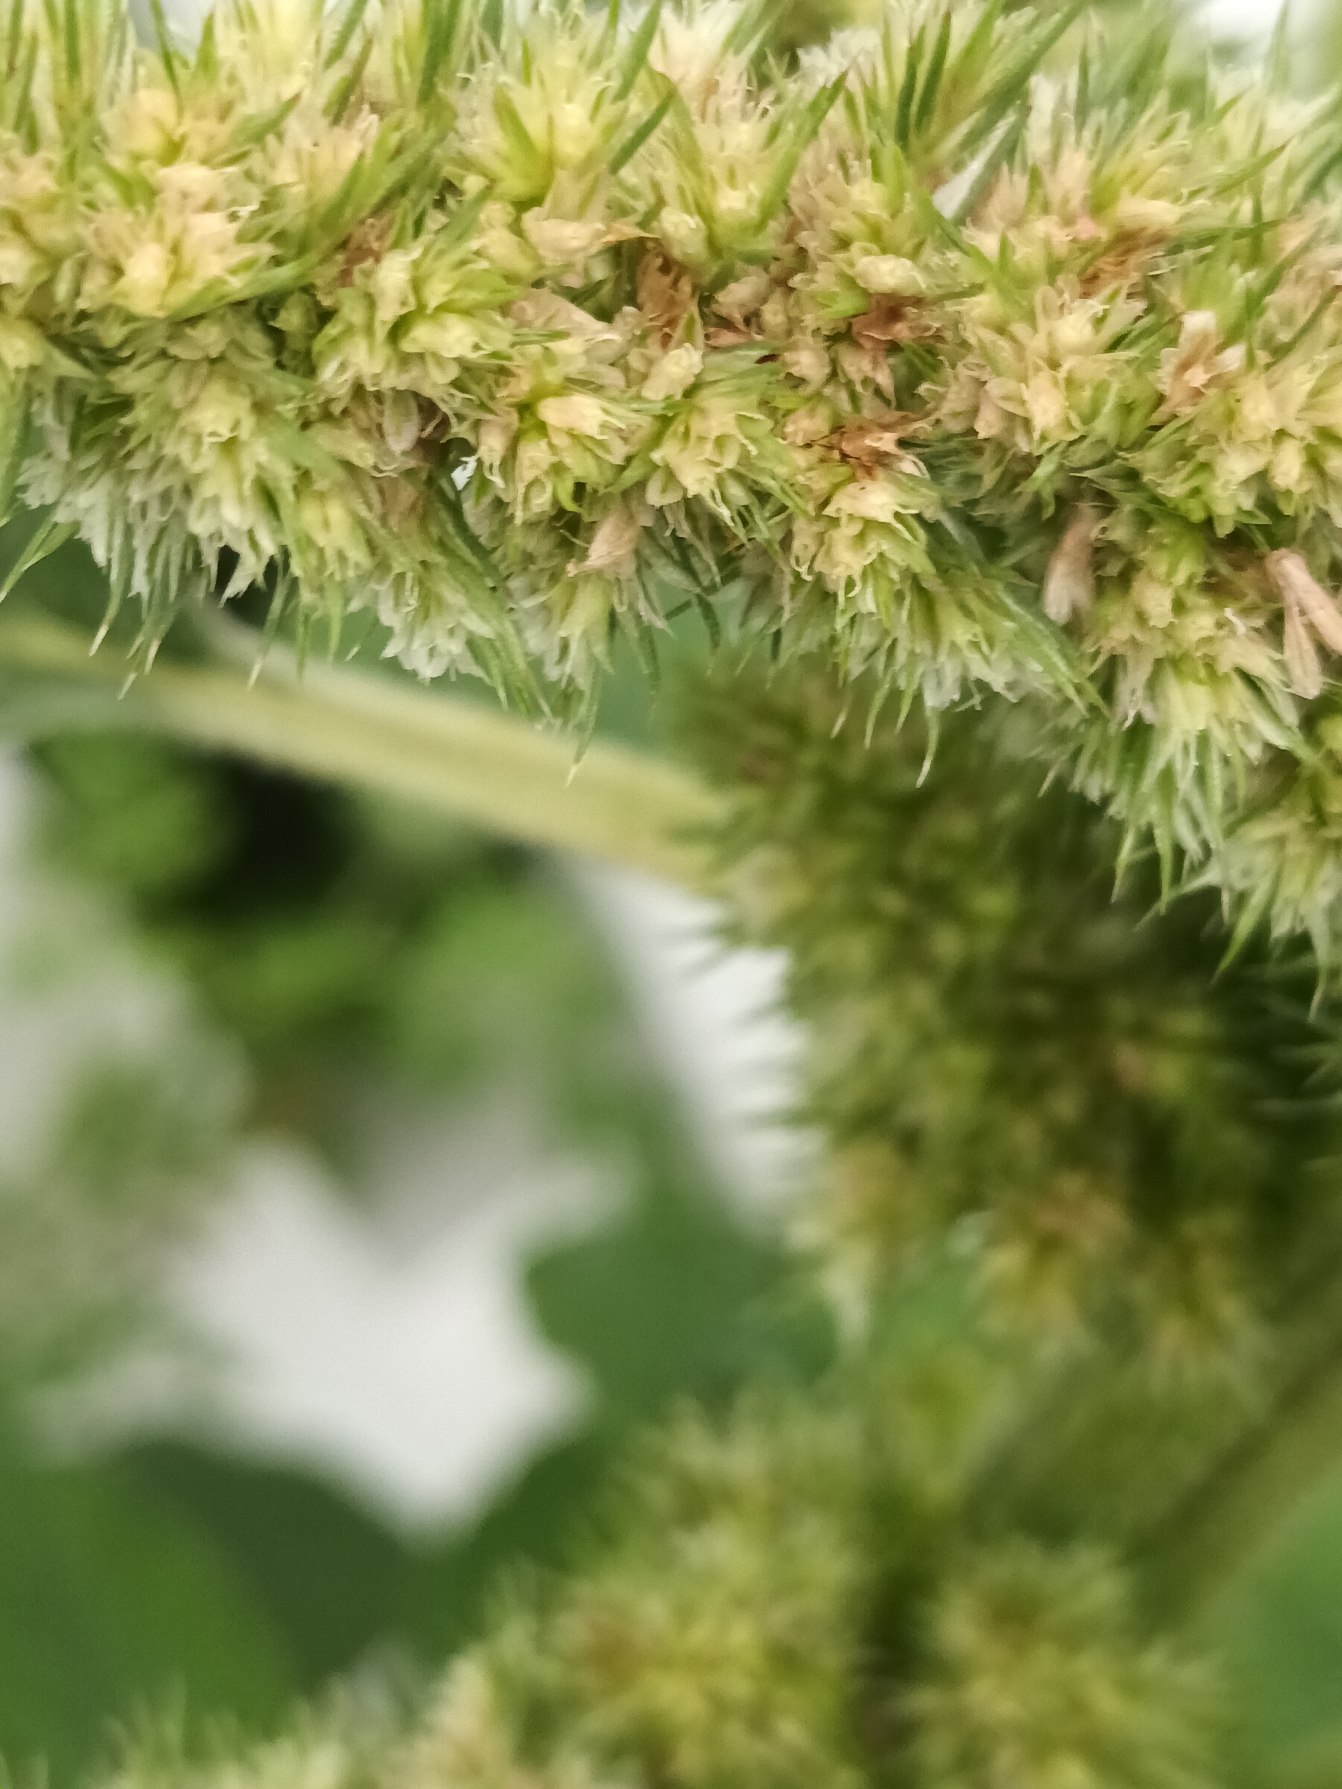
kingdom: Plantae
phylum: Tracheophyta
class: Magnoliopsida
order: Caryophyllales
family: Amaranthaceae
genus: Amaranthus
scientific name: Amaranthus retroflexus
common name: Opret amarant
